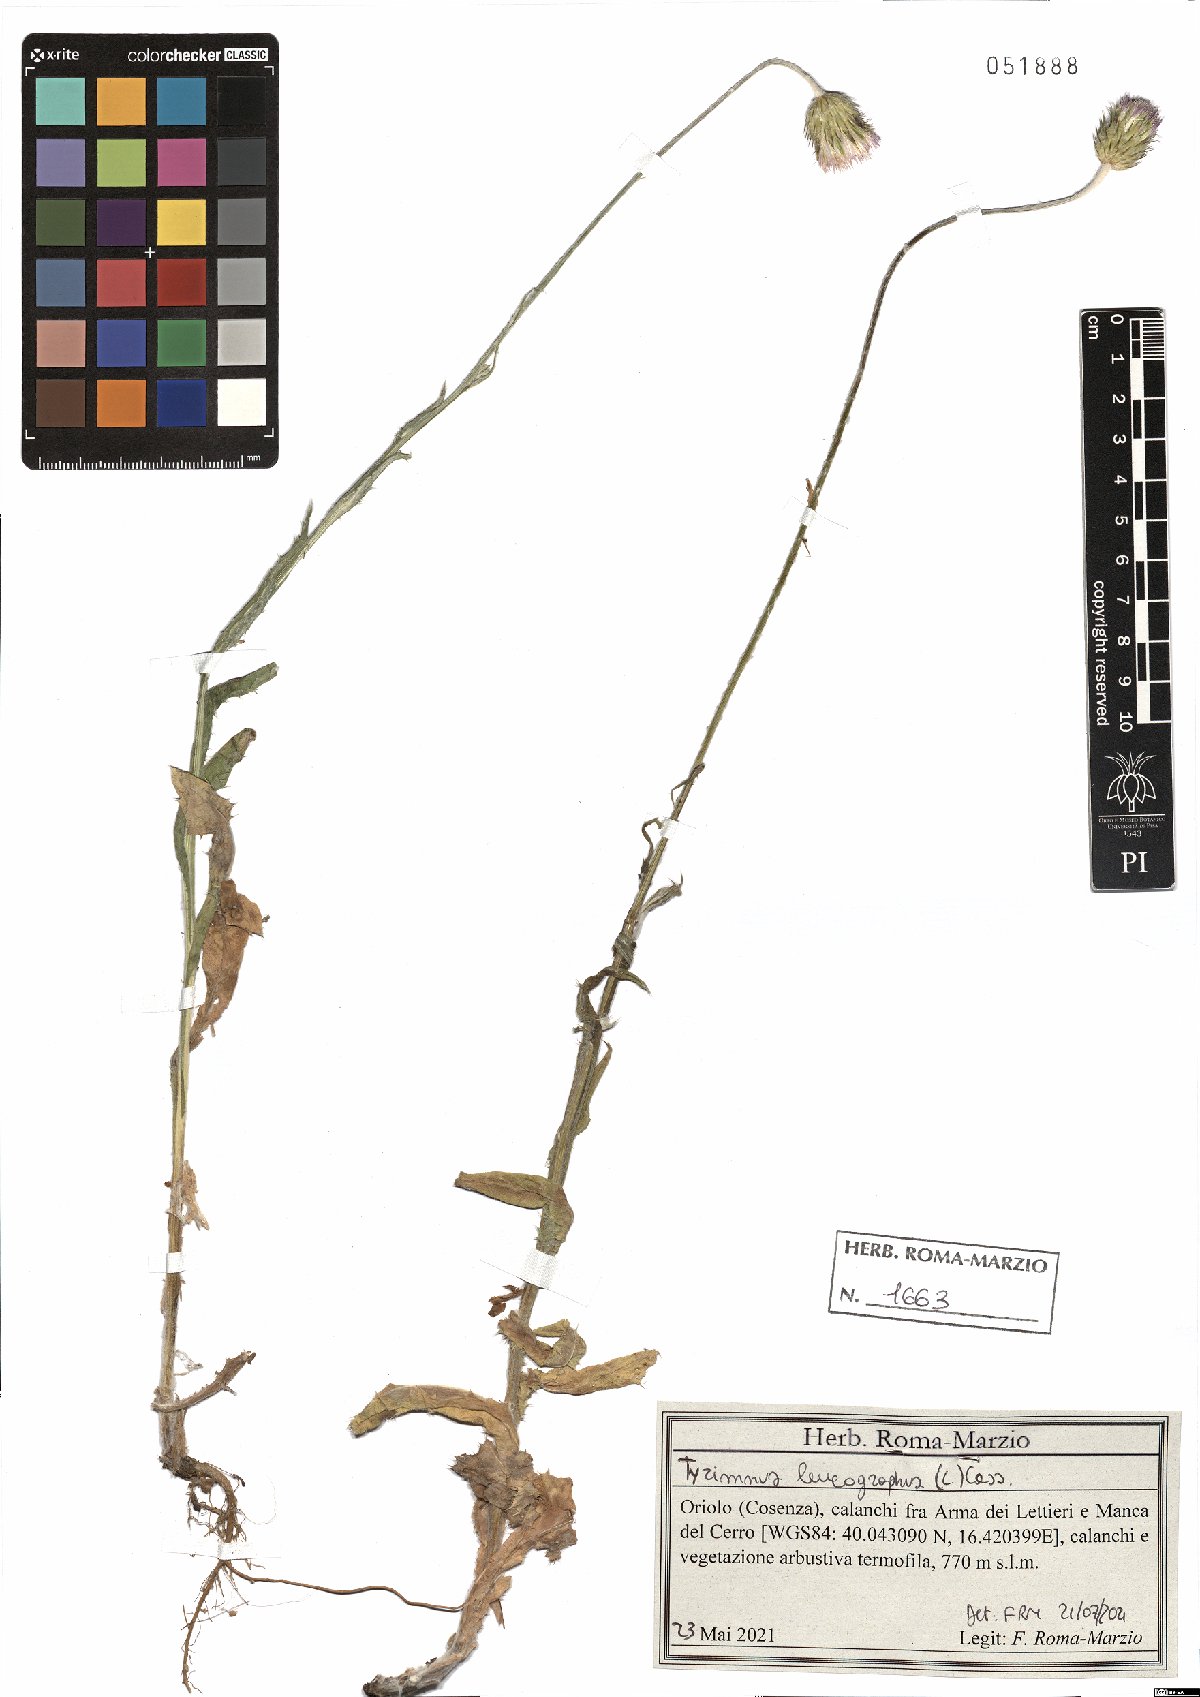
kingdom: Plantae
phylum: Tracheophyta
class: Magnoliopsida
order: Asterales
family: Asteraceae
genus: Tyrimnus
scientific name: Tyrimnus leucographus
